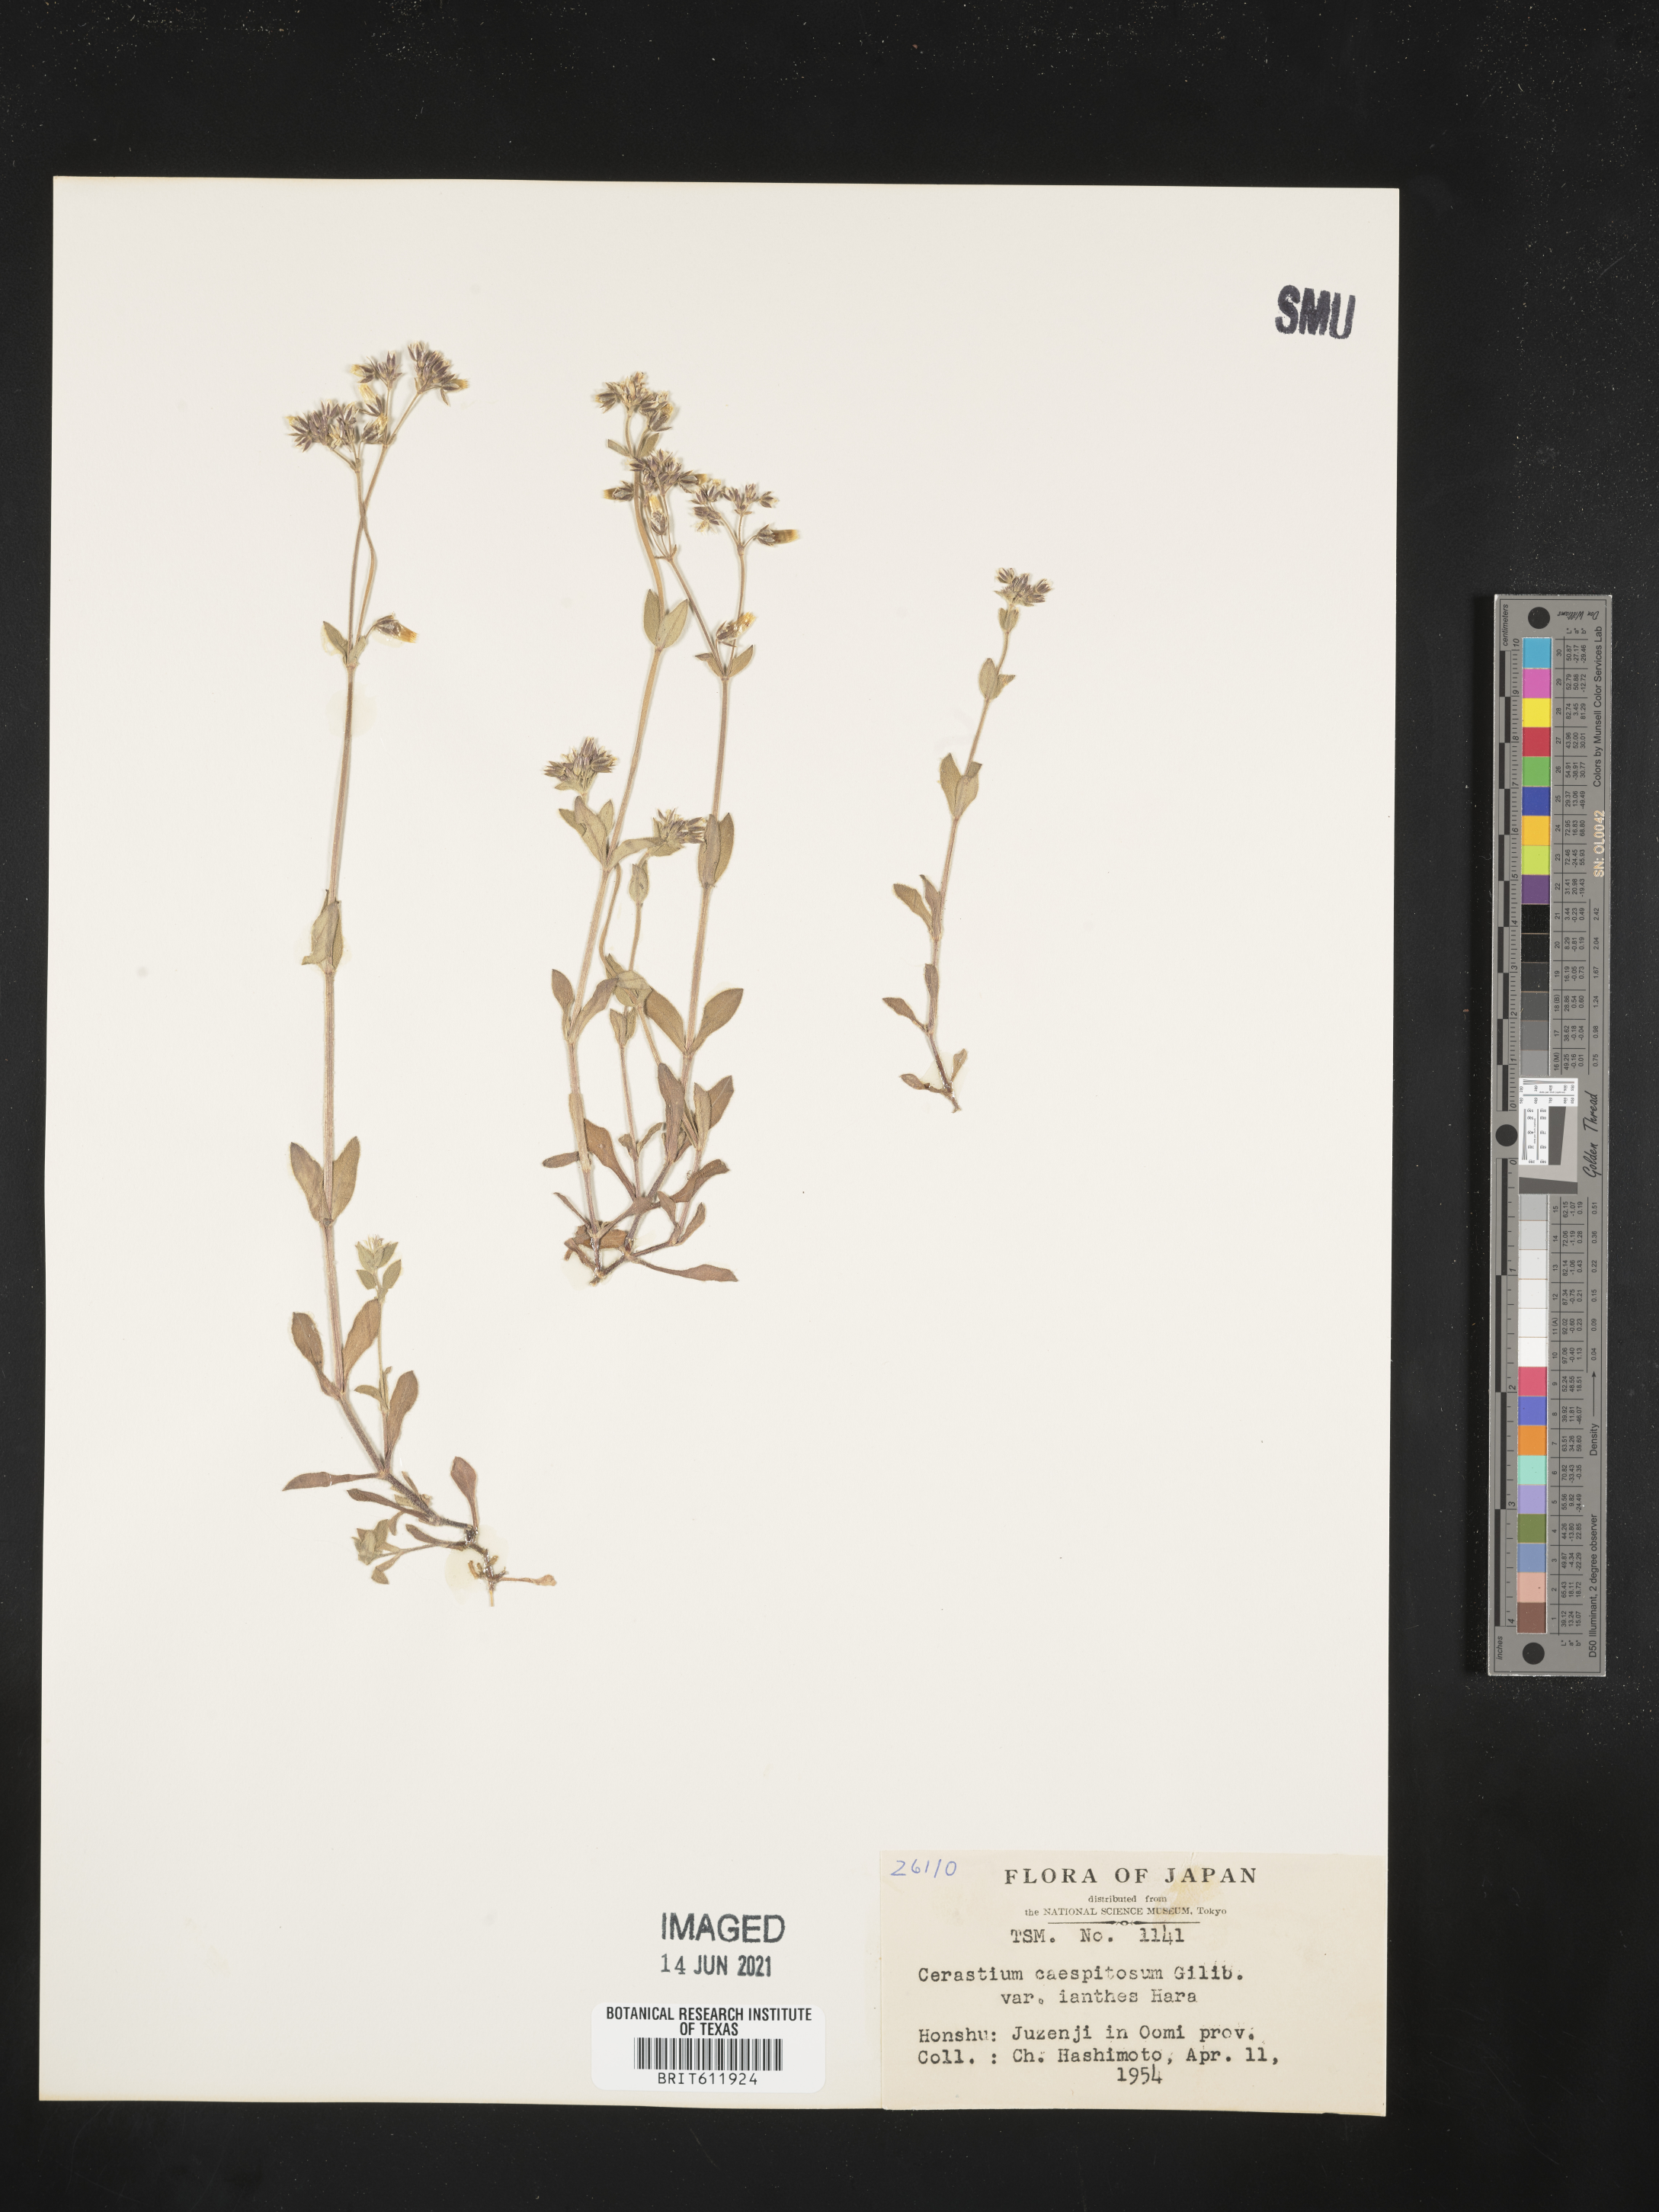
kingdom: Plantae
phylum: Tracheophyta
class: Magnoliopsida
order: Caryophyllales
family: Caryophyllaceae
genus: Cerastium
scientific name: Cerastium fontanum
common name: Common mouse-ear
